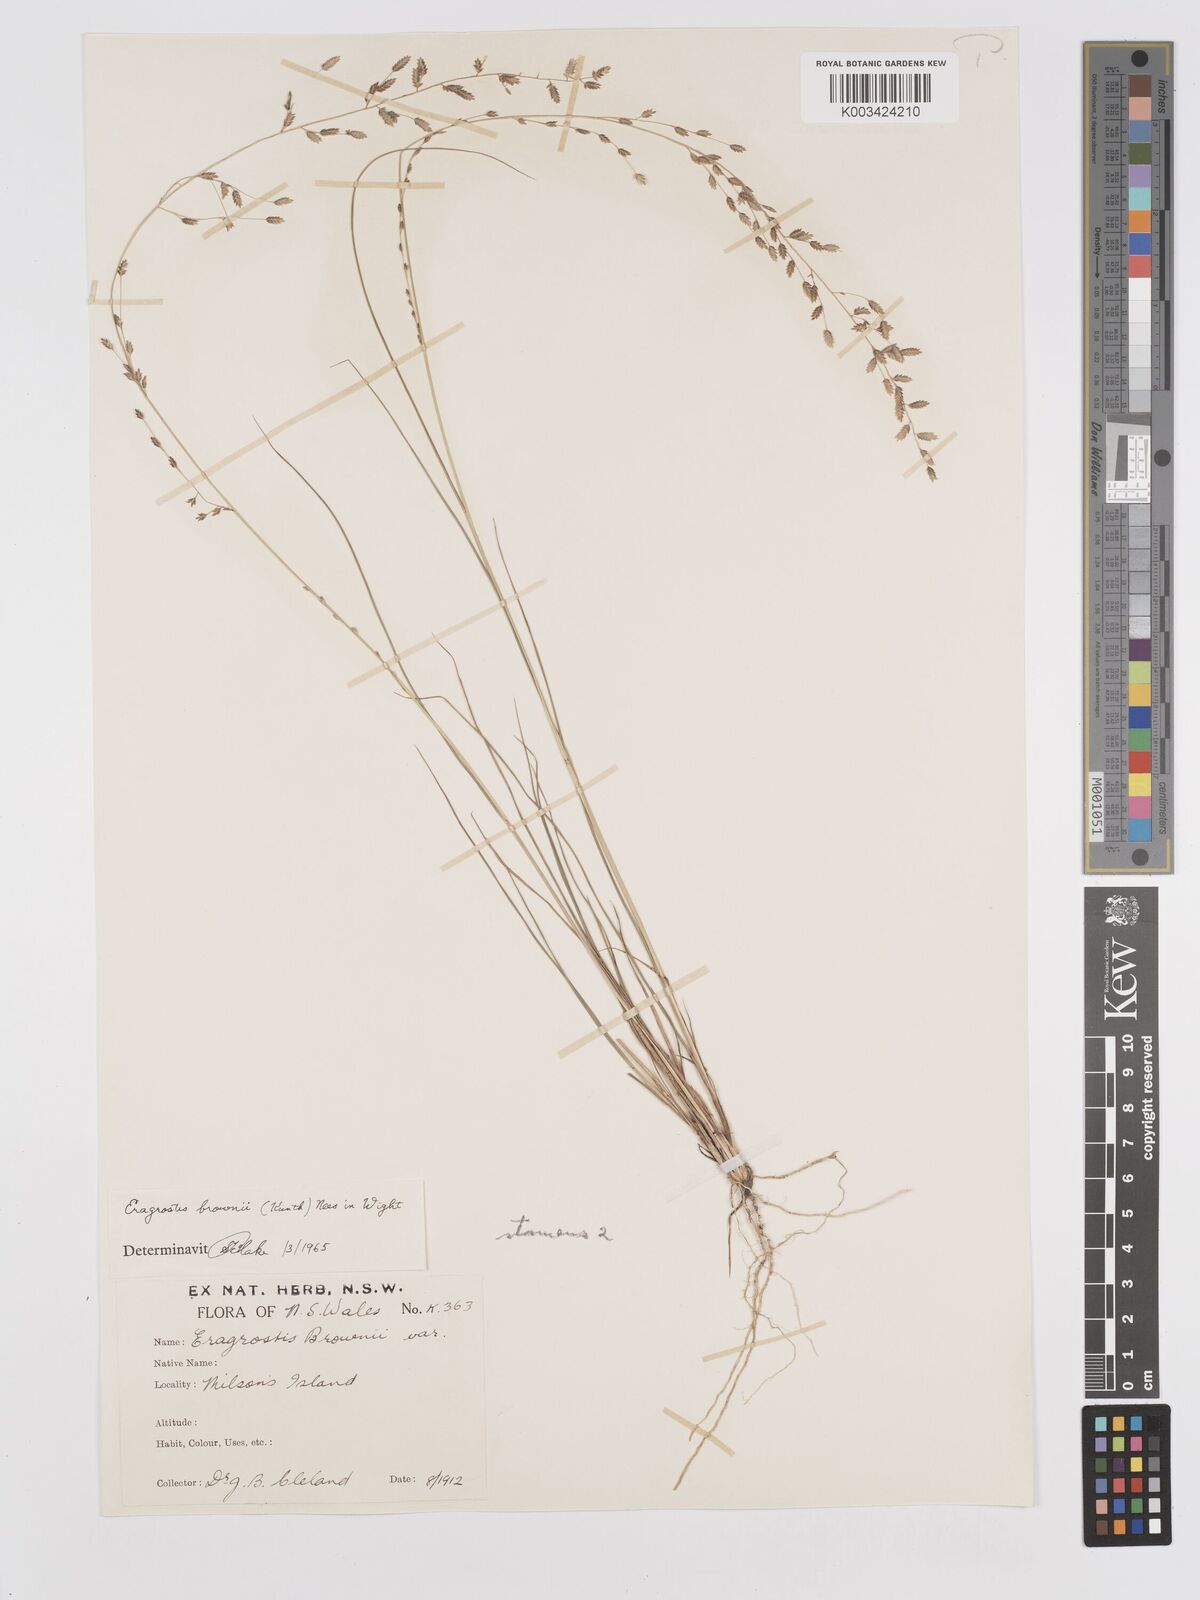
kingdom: Plantae
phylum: Tracheophyta
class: Liliopsida
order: Poales
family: Poaceae
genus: Eragrostis
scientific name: Eragrostis brownii
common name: Lovegrass
